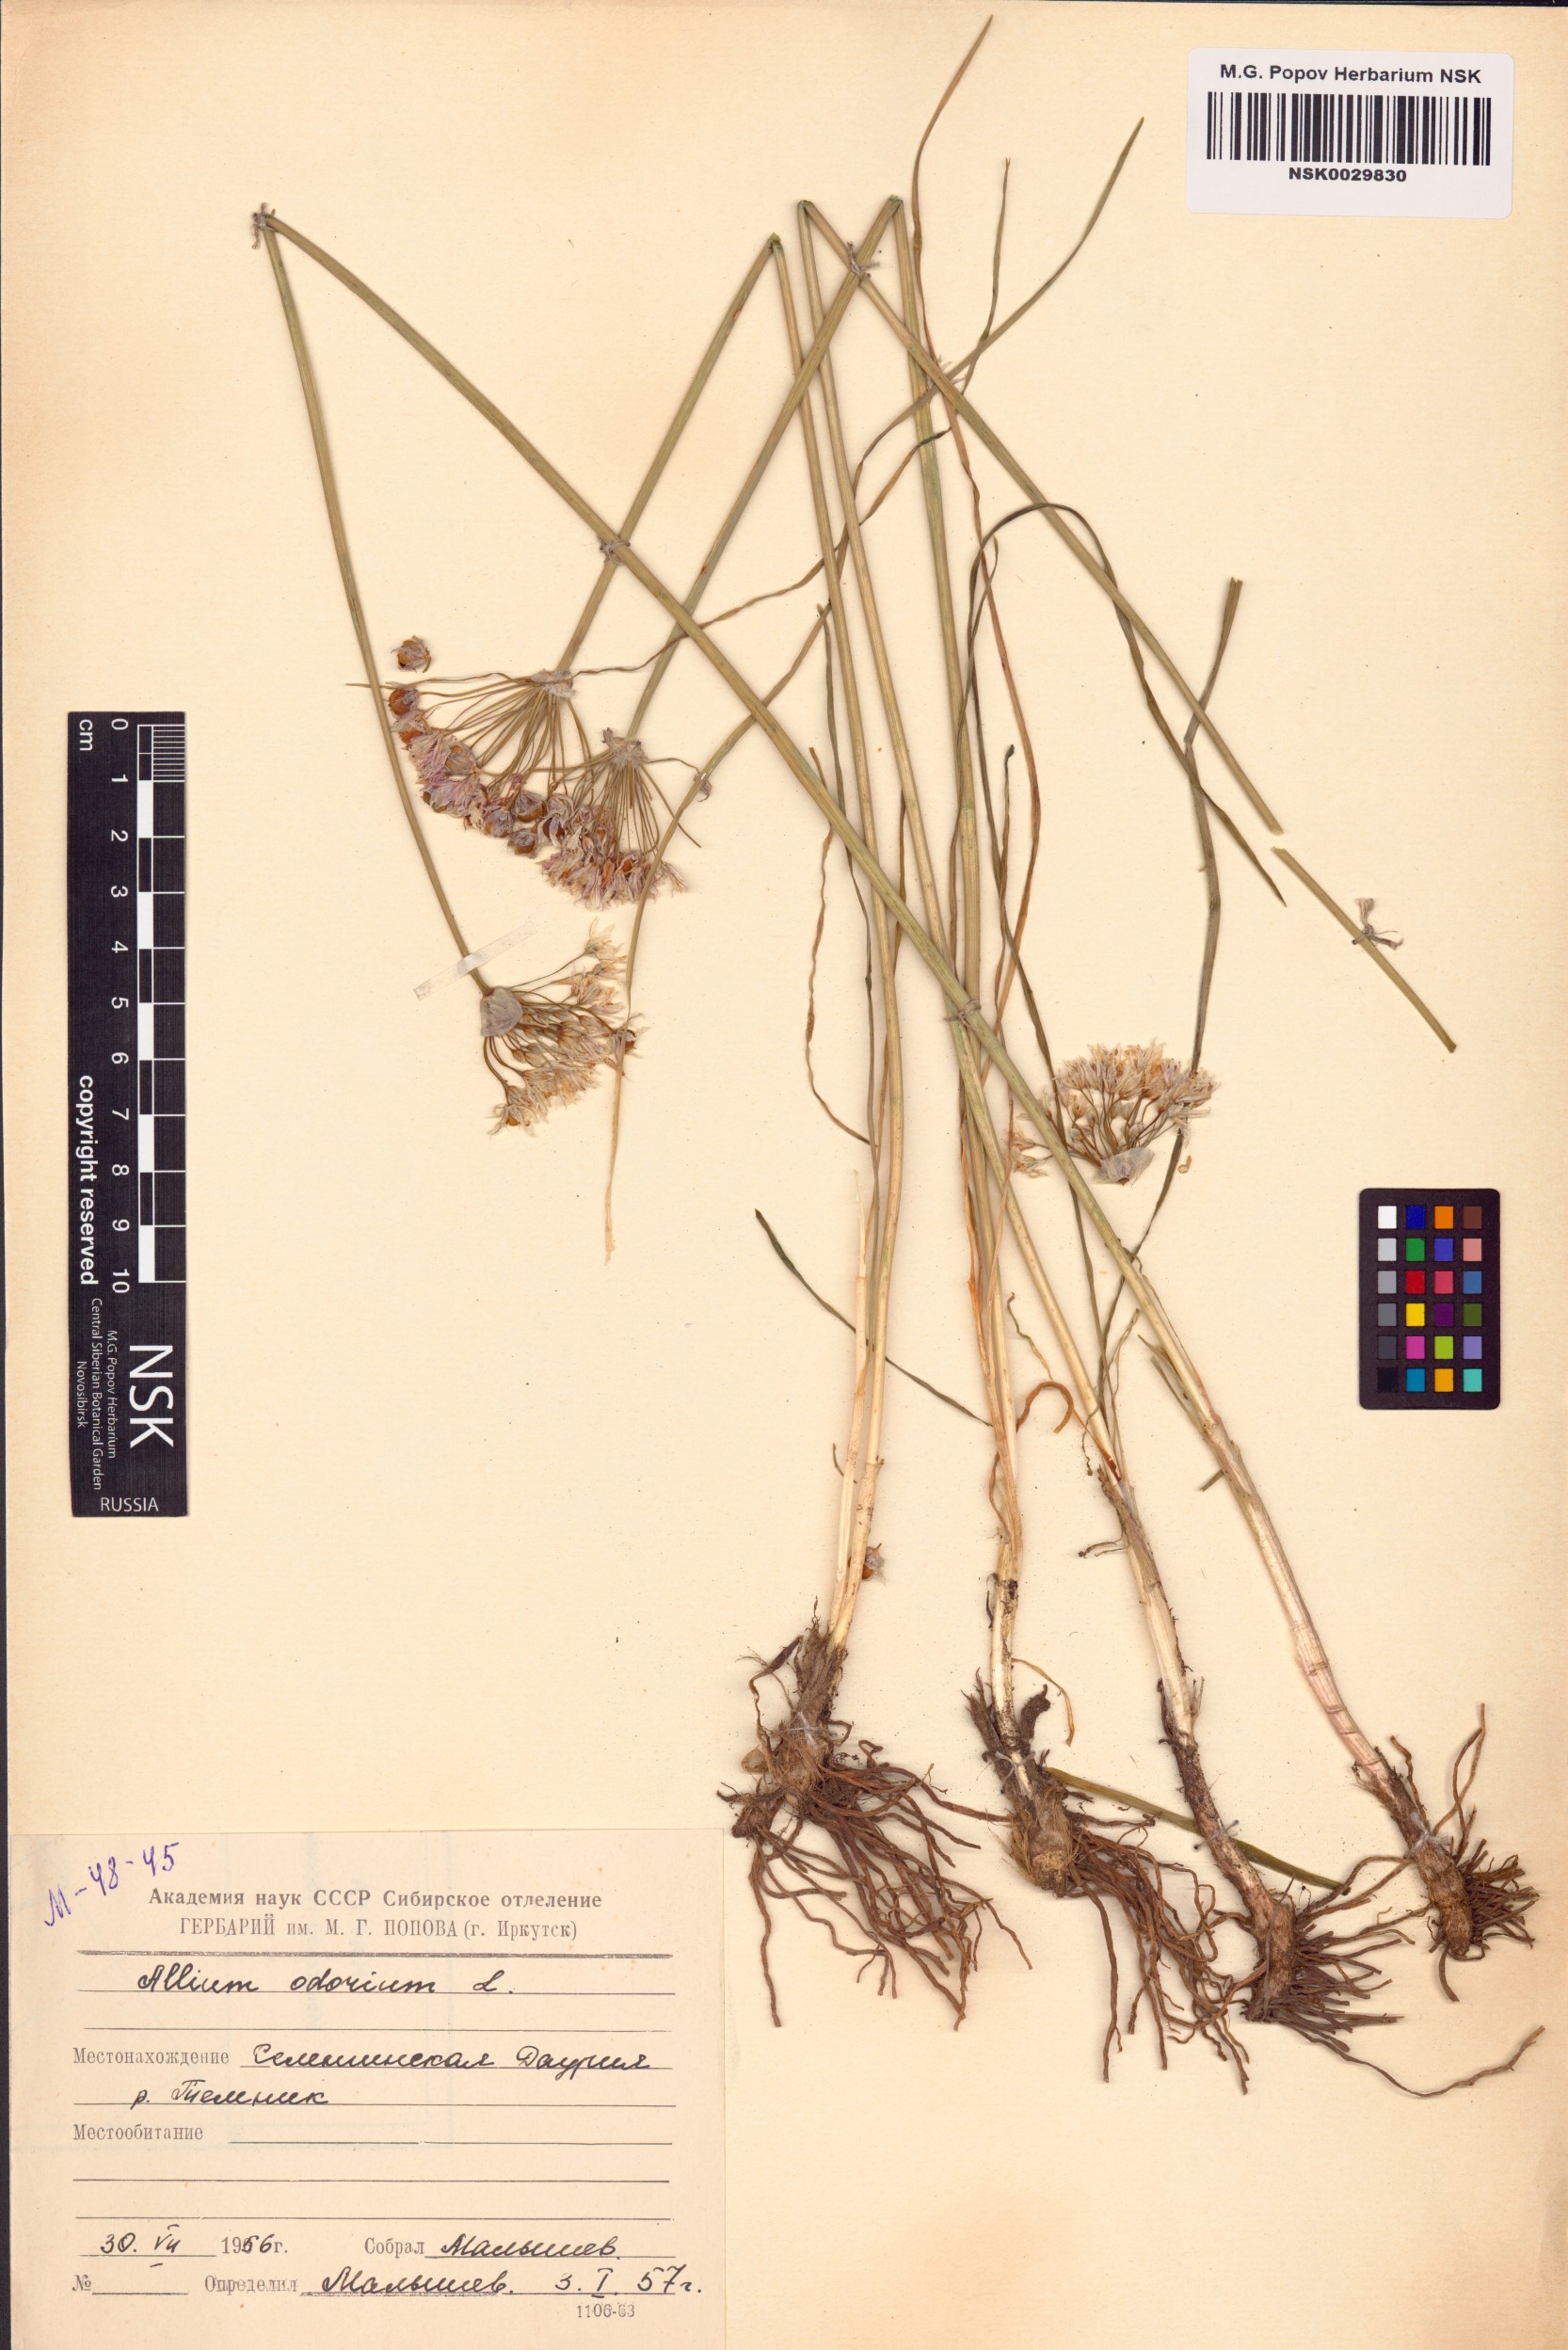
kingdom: Plantae
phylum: Tracheophyta
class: Liliopsida
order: Asparagales
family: Amaryllidaceae
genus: Allium
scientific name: Allium ramosum
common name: Fragrant garlic
